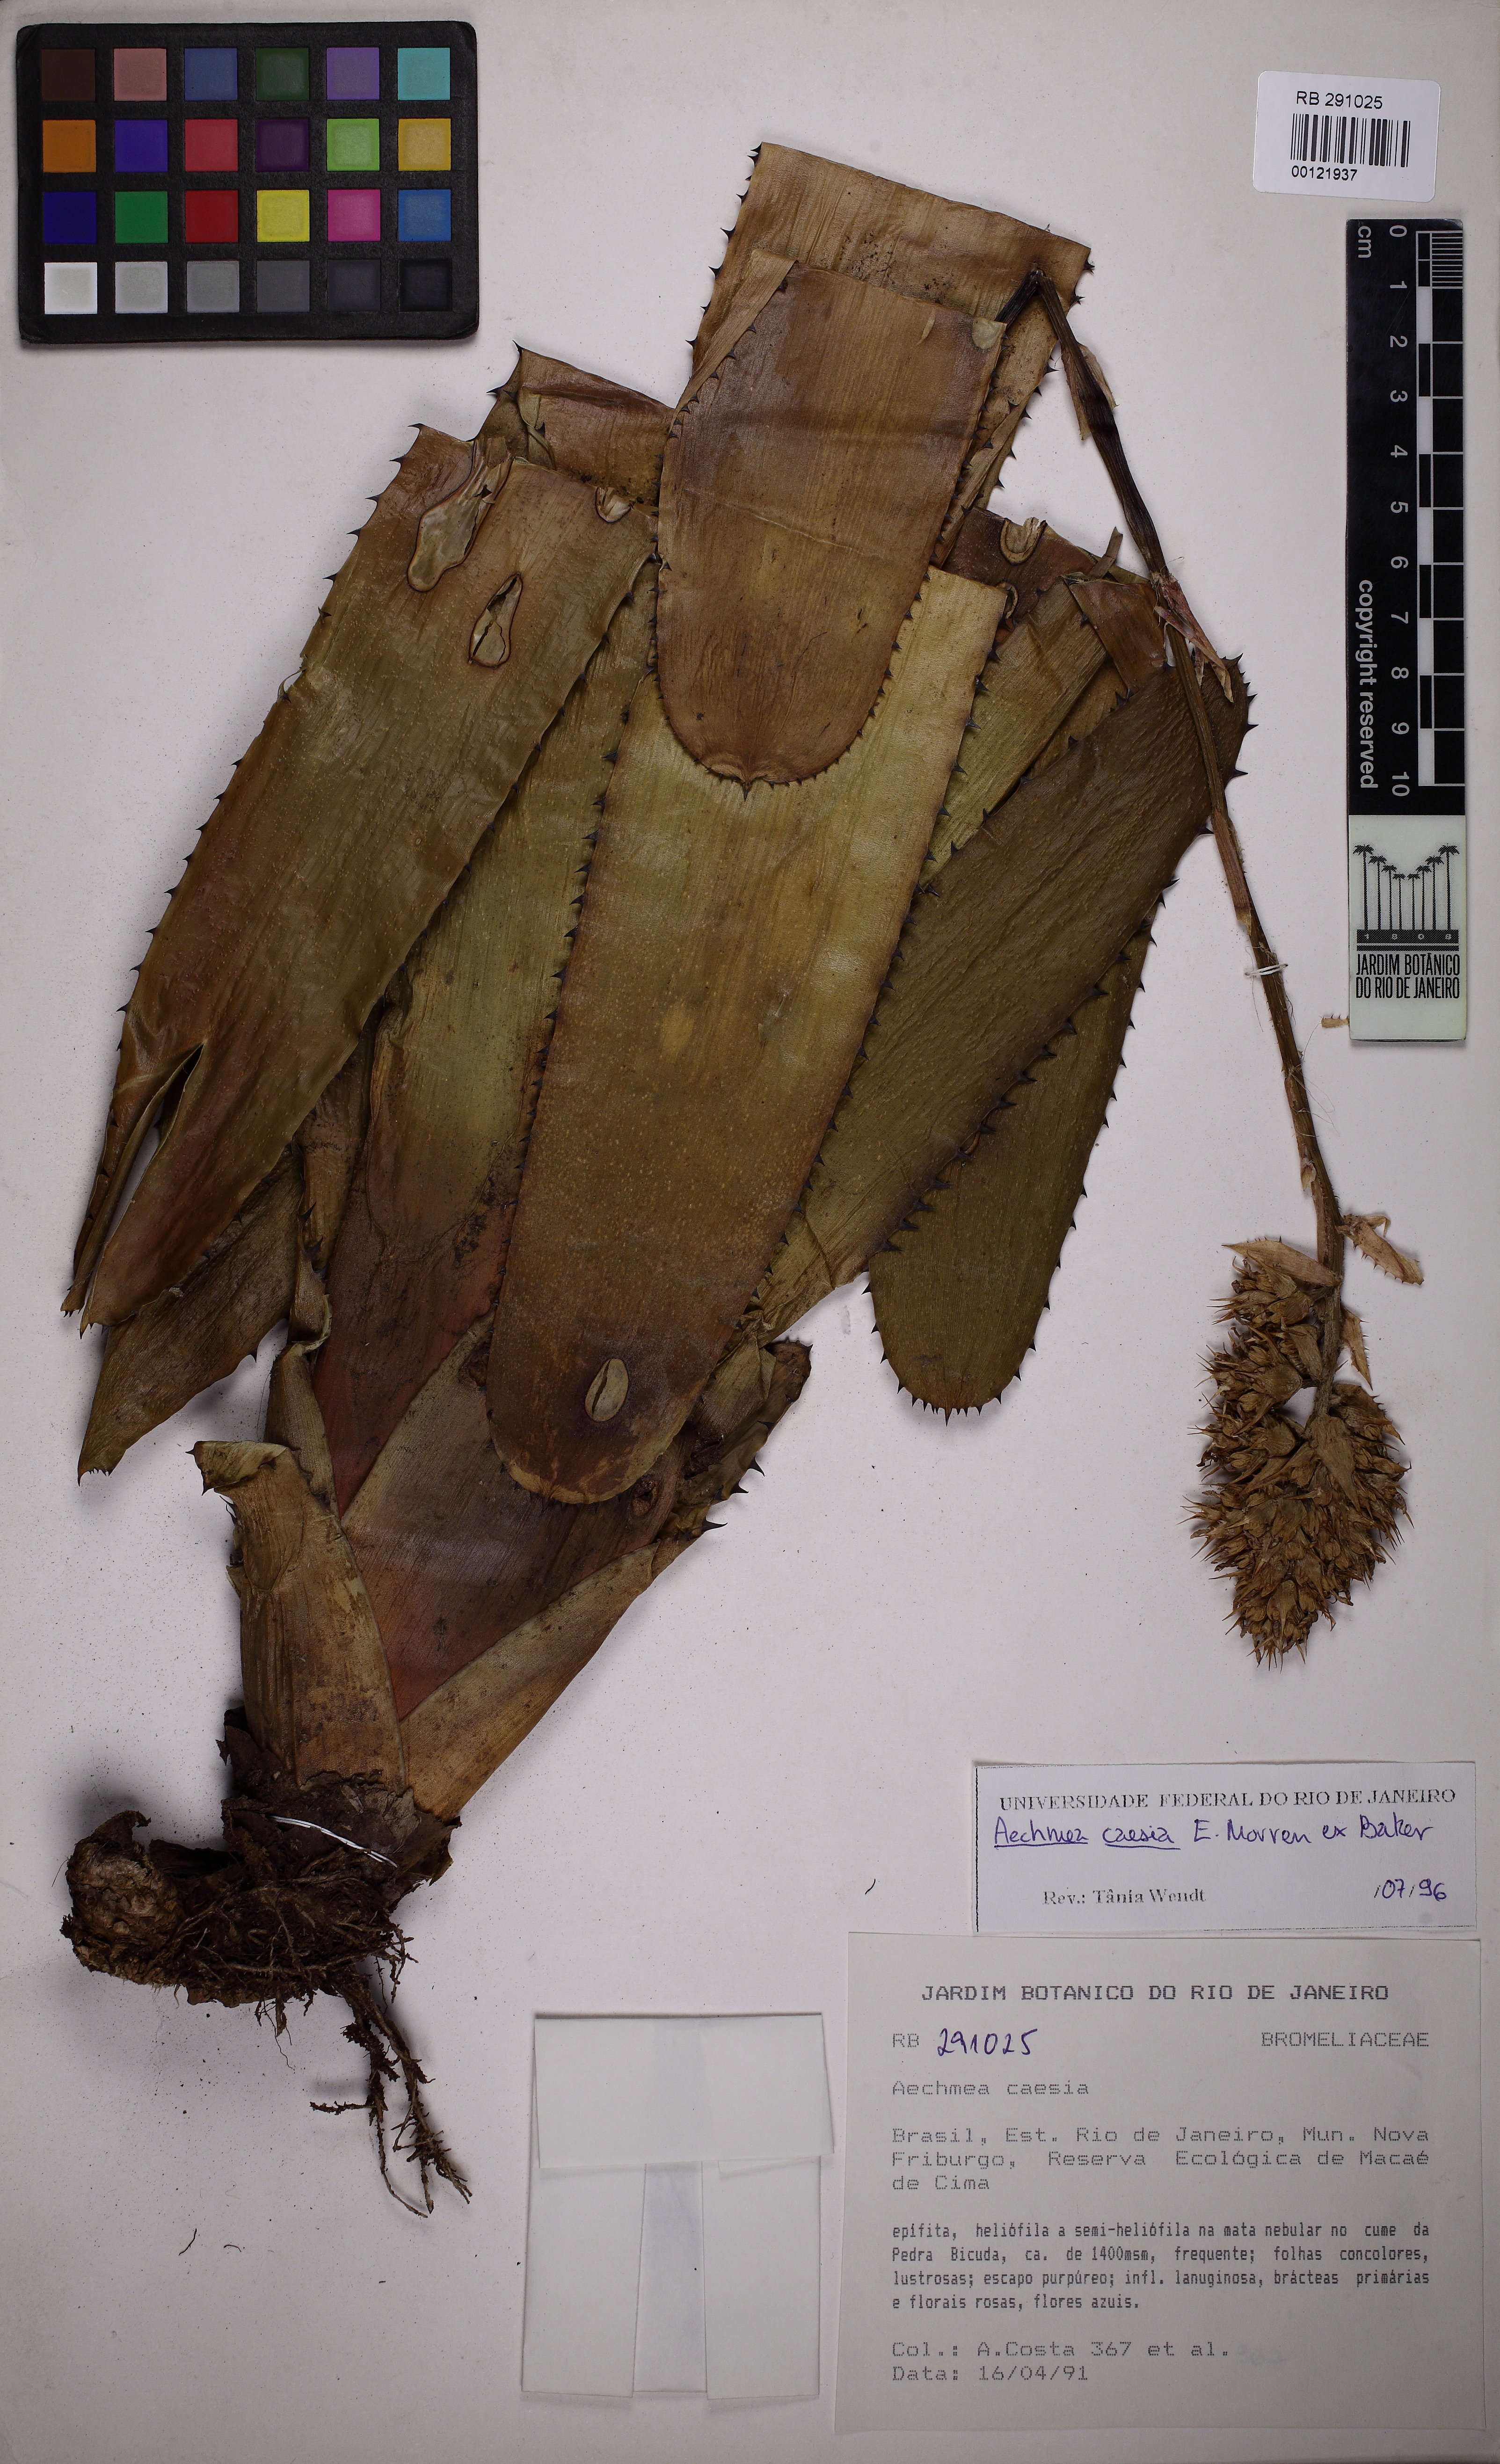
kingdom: Plantae
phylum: Tracheophyta
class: Liliopsida
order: Poales
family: Bromeliaceae
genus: Aechmea
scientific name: Aechmea caesia
